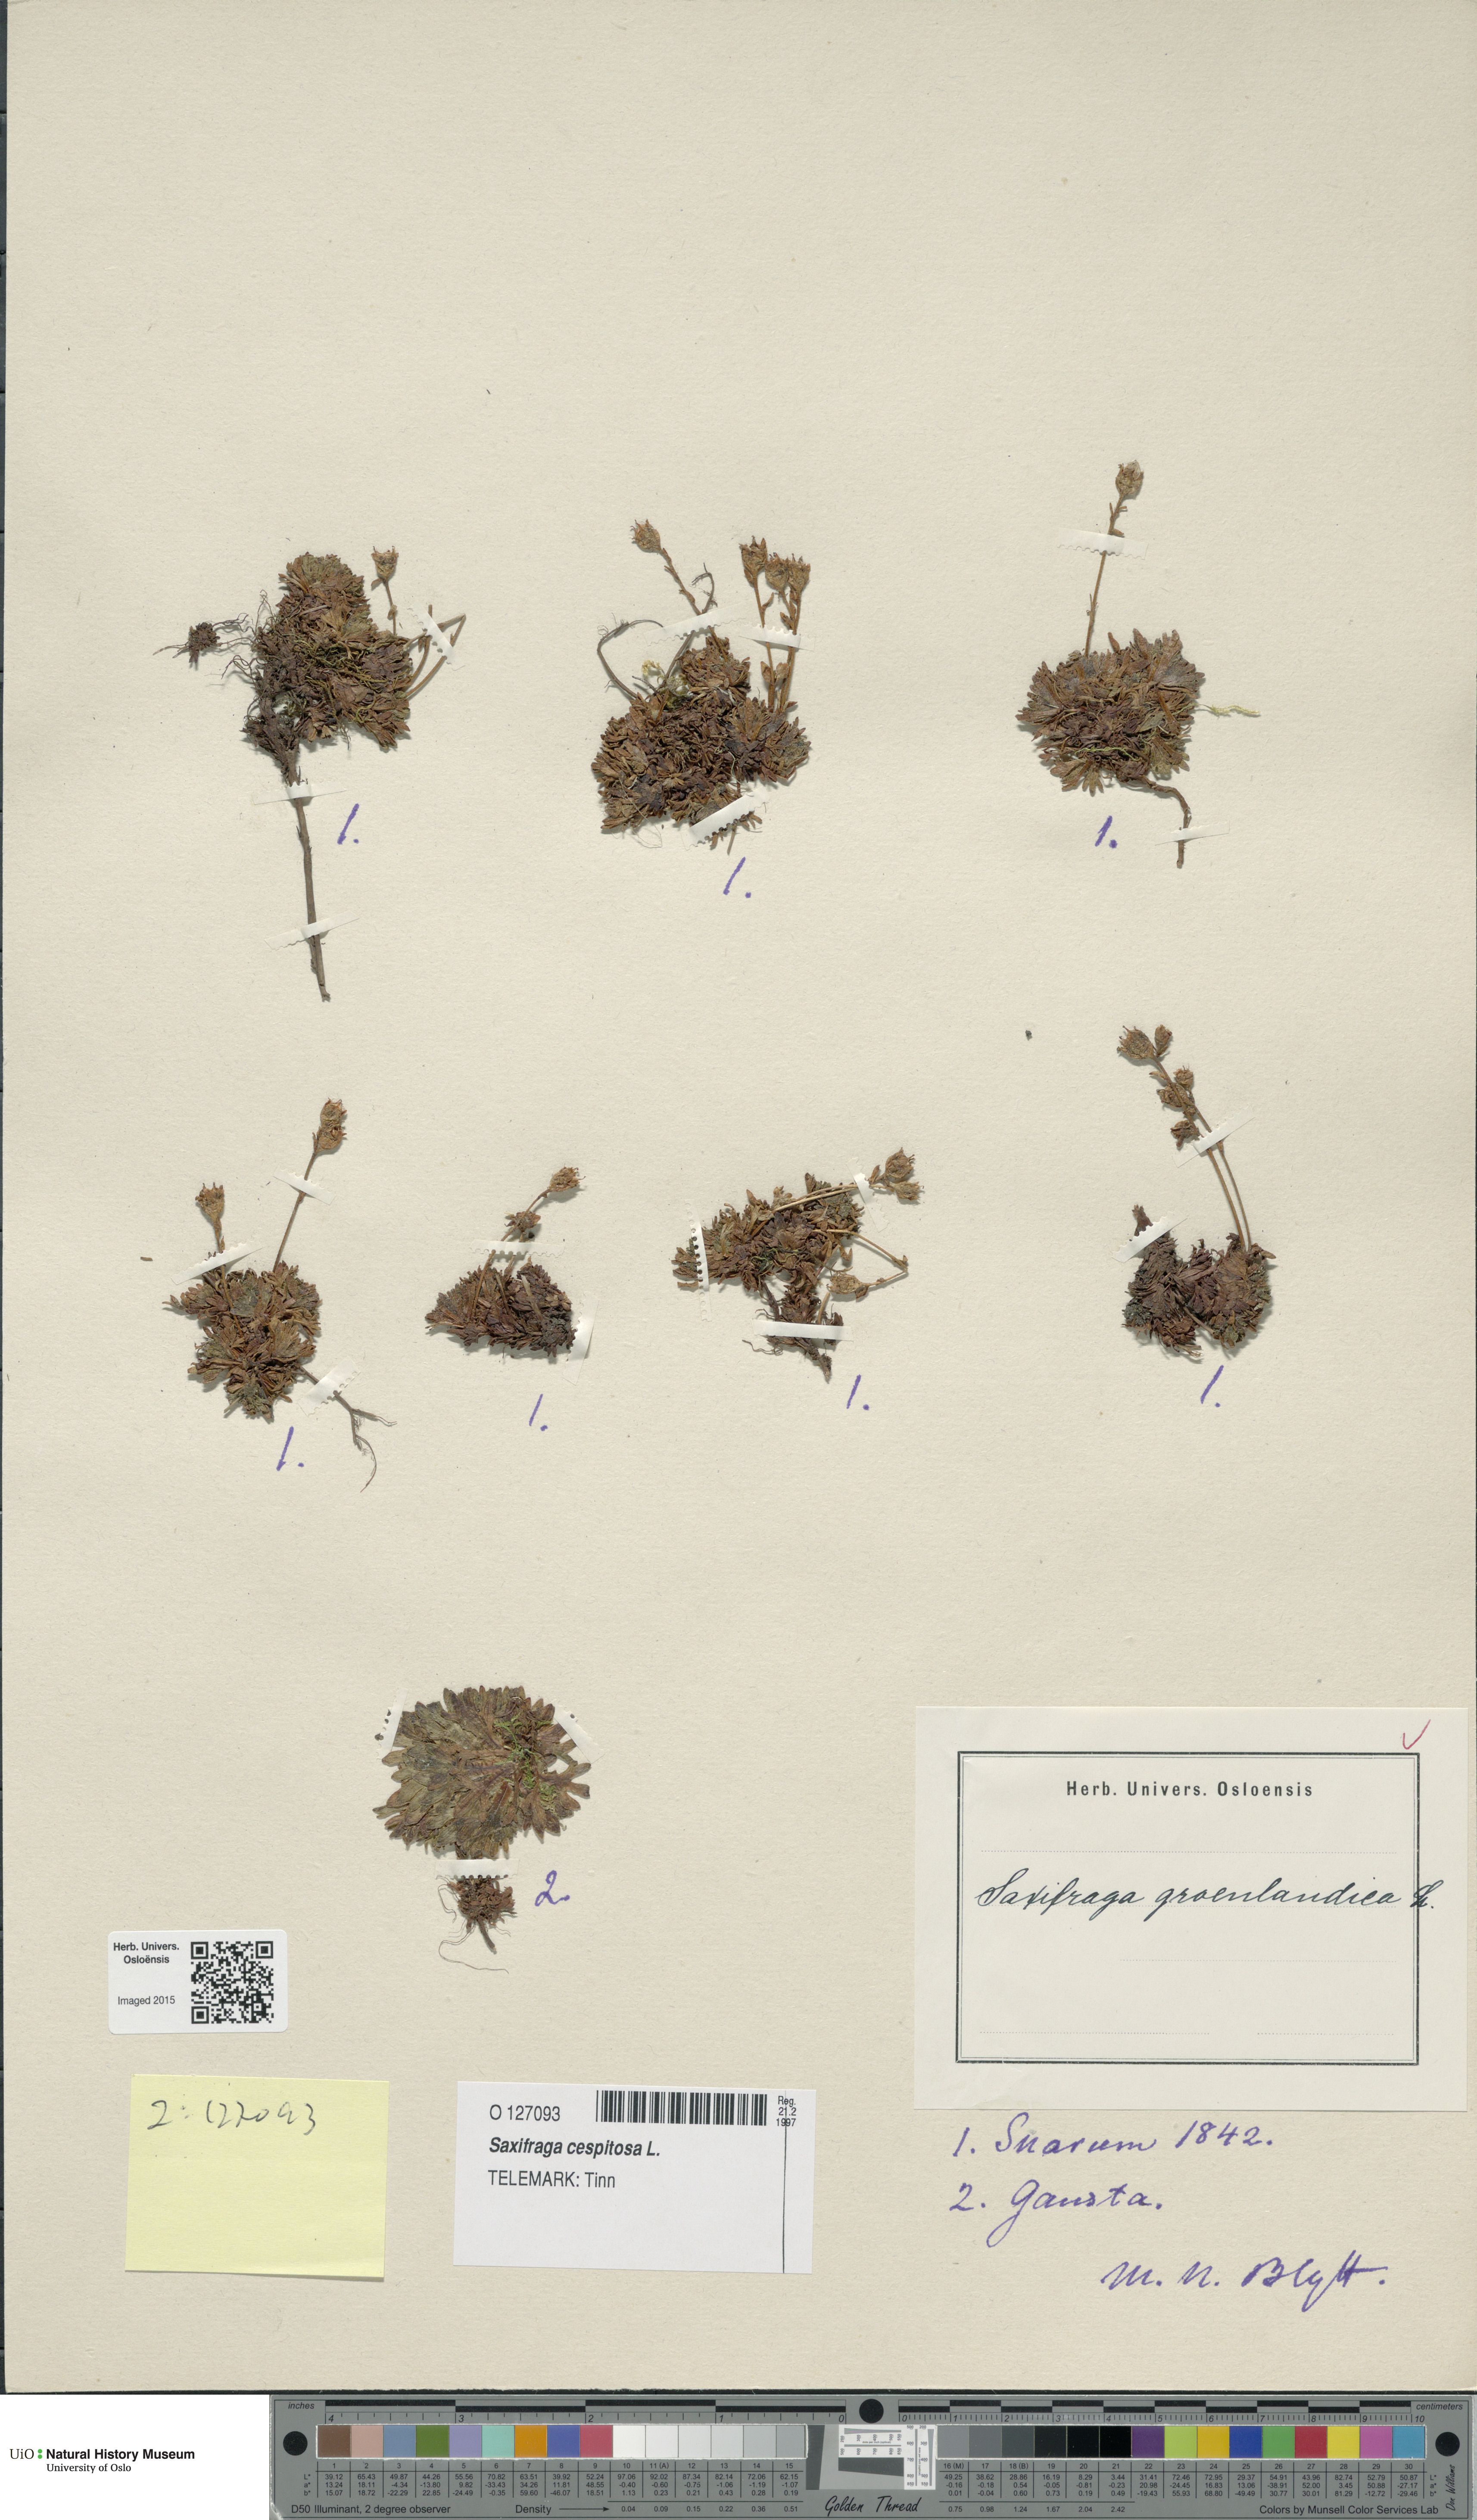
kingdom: Plantae
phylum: Tracheophyta
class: Magnoliopsida
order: Saxifragales
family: Saxifragaceae
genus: Saxifraga
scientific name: Saxifraga cespitosa
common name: Tufted saxifrage
